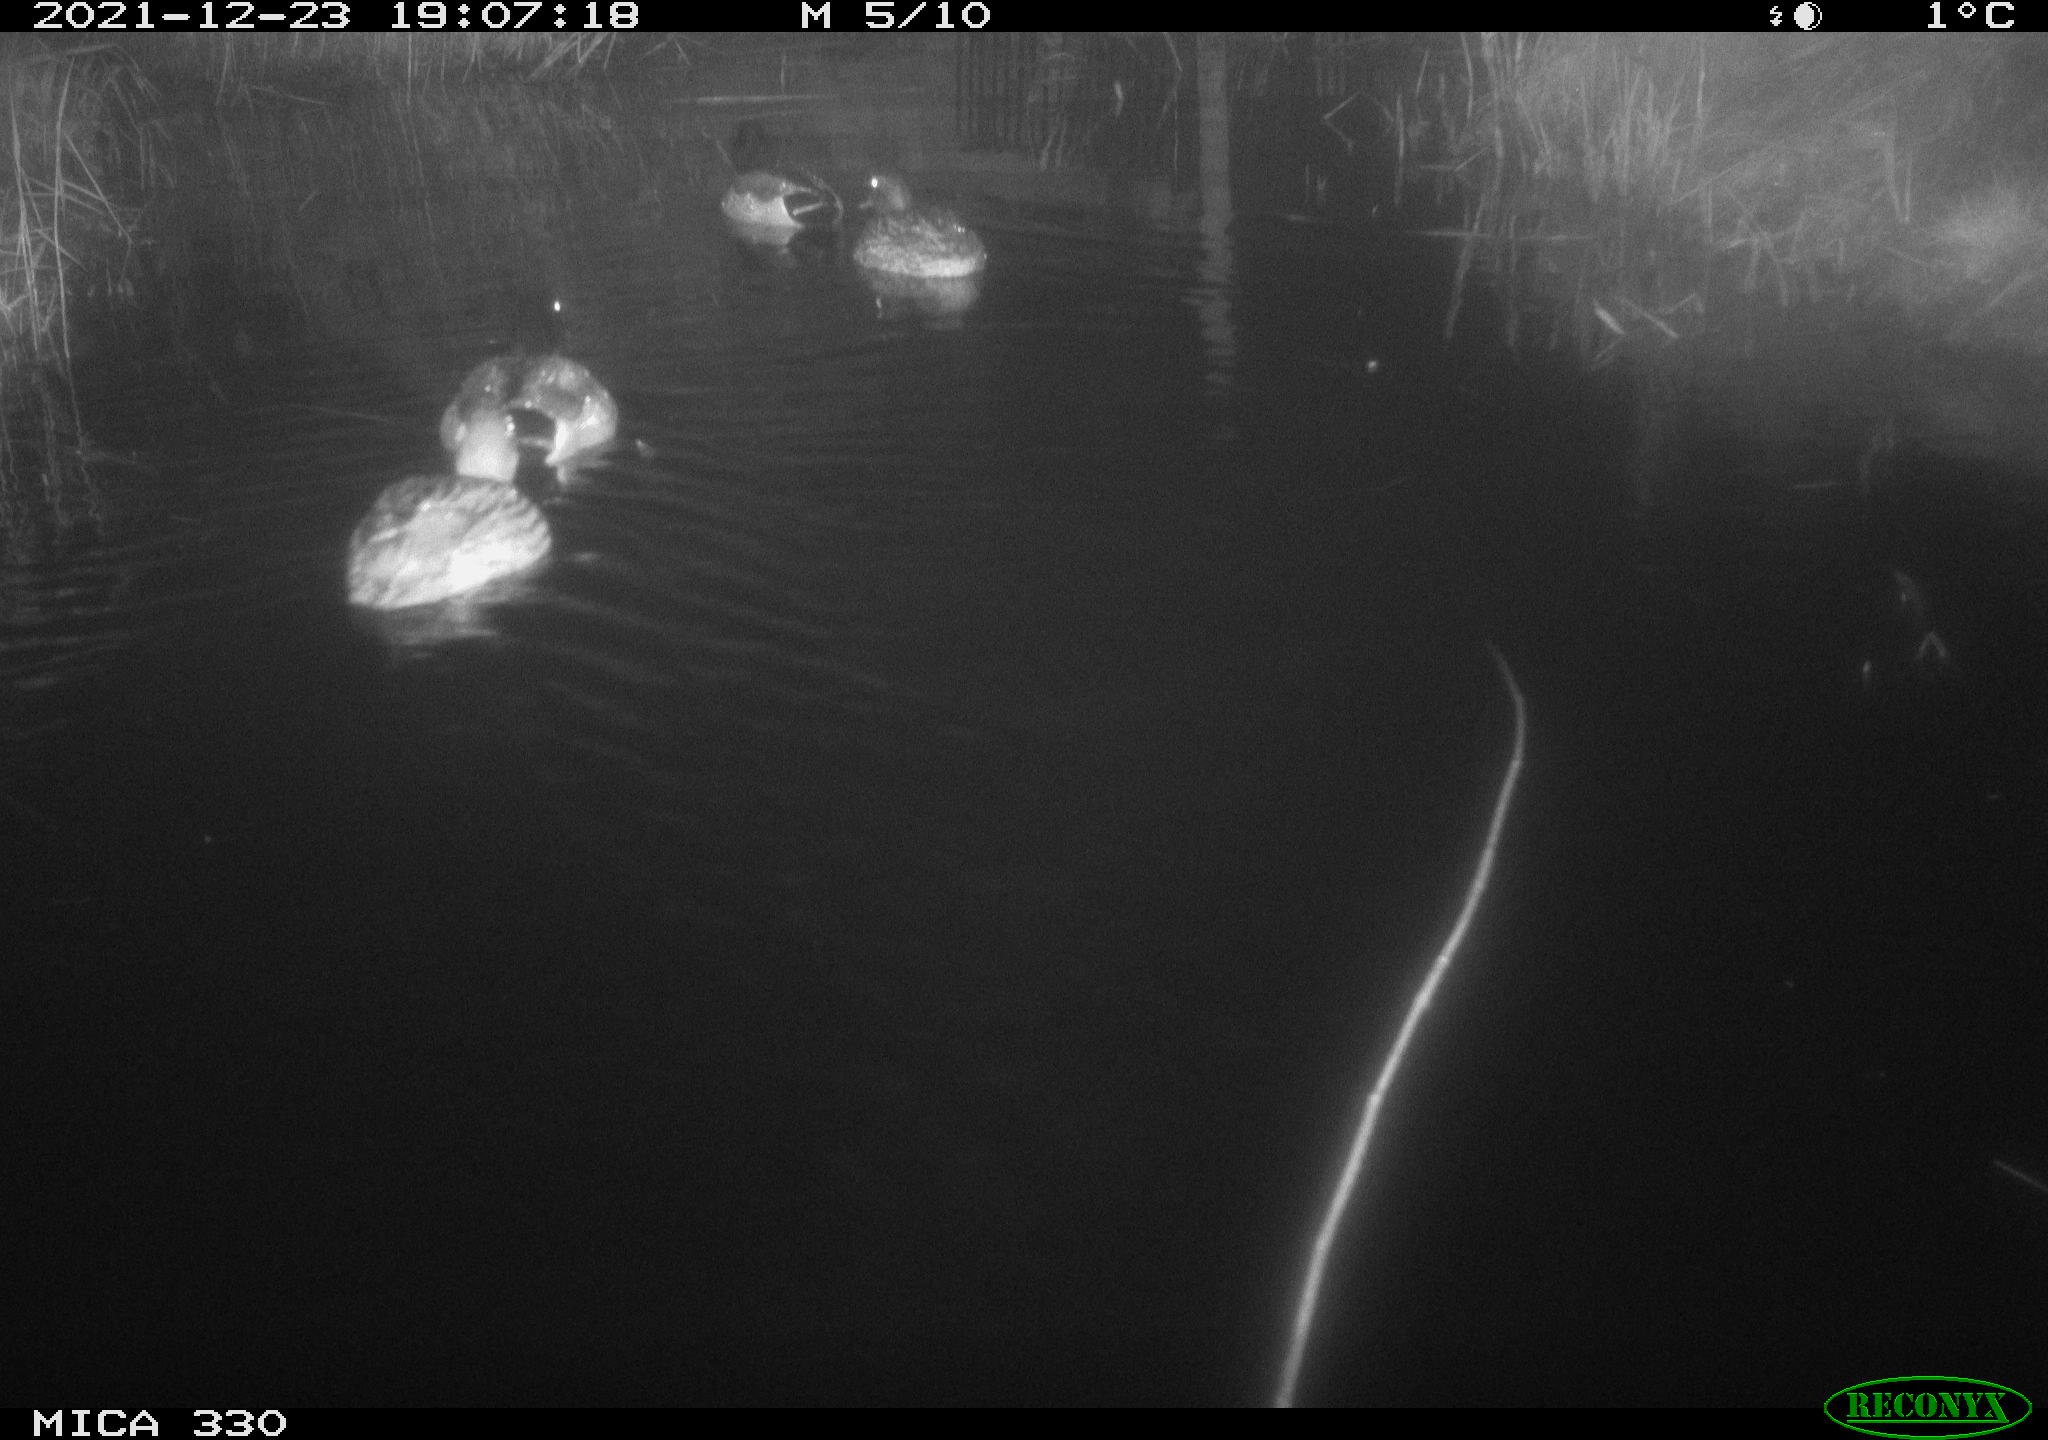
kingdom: Animalia
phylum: Chordata
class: Aves
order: Anseriformes
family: Anatidae
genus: Anas
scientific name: Anas platyrhynchos
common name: Mallard
